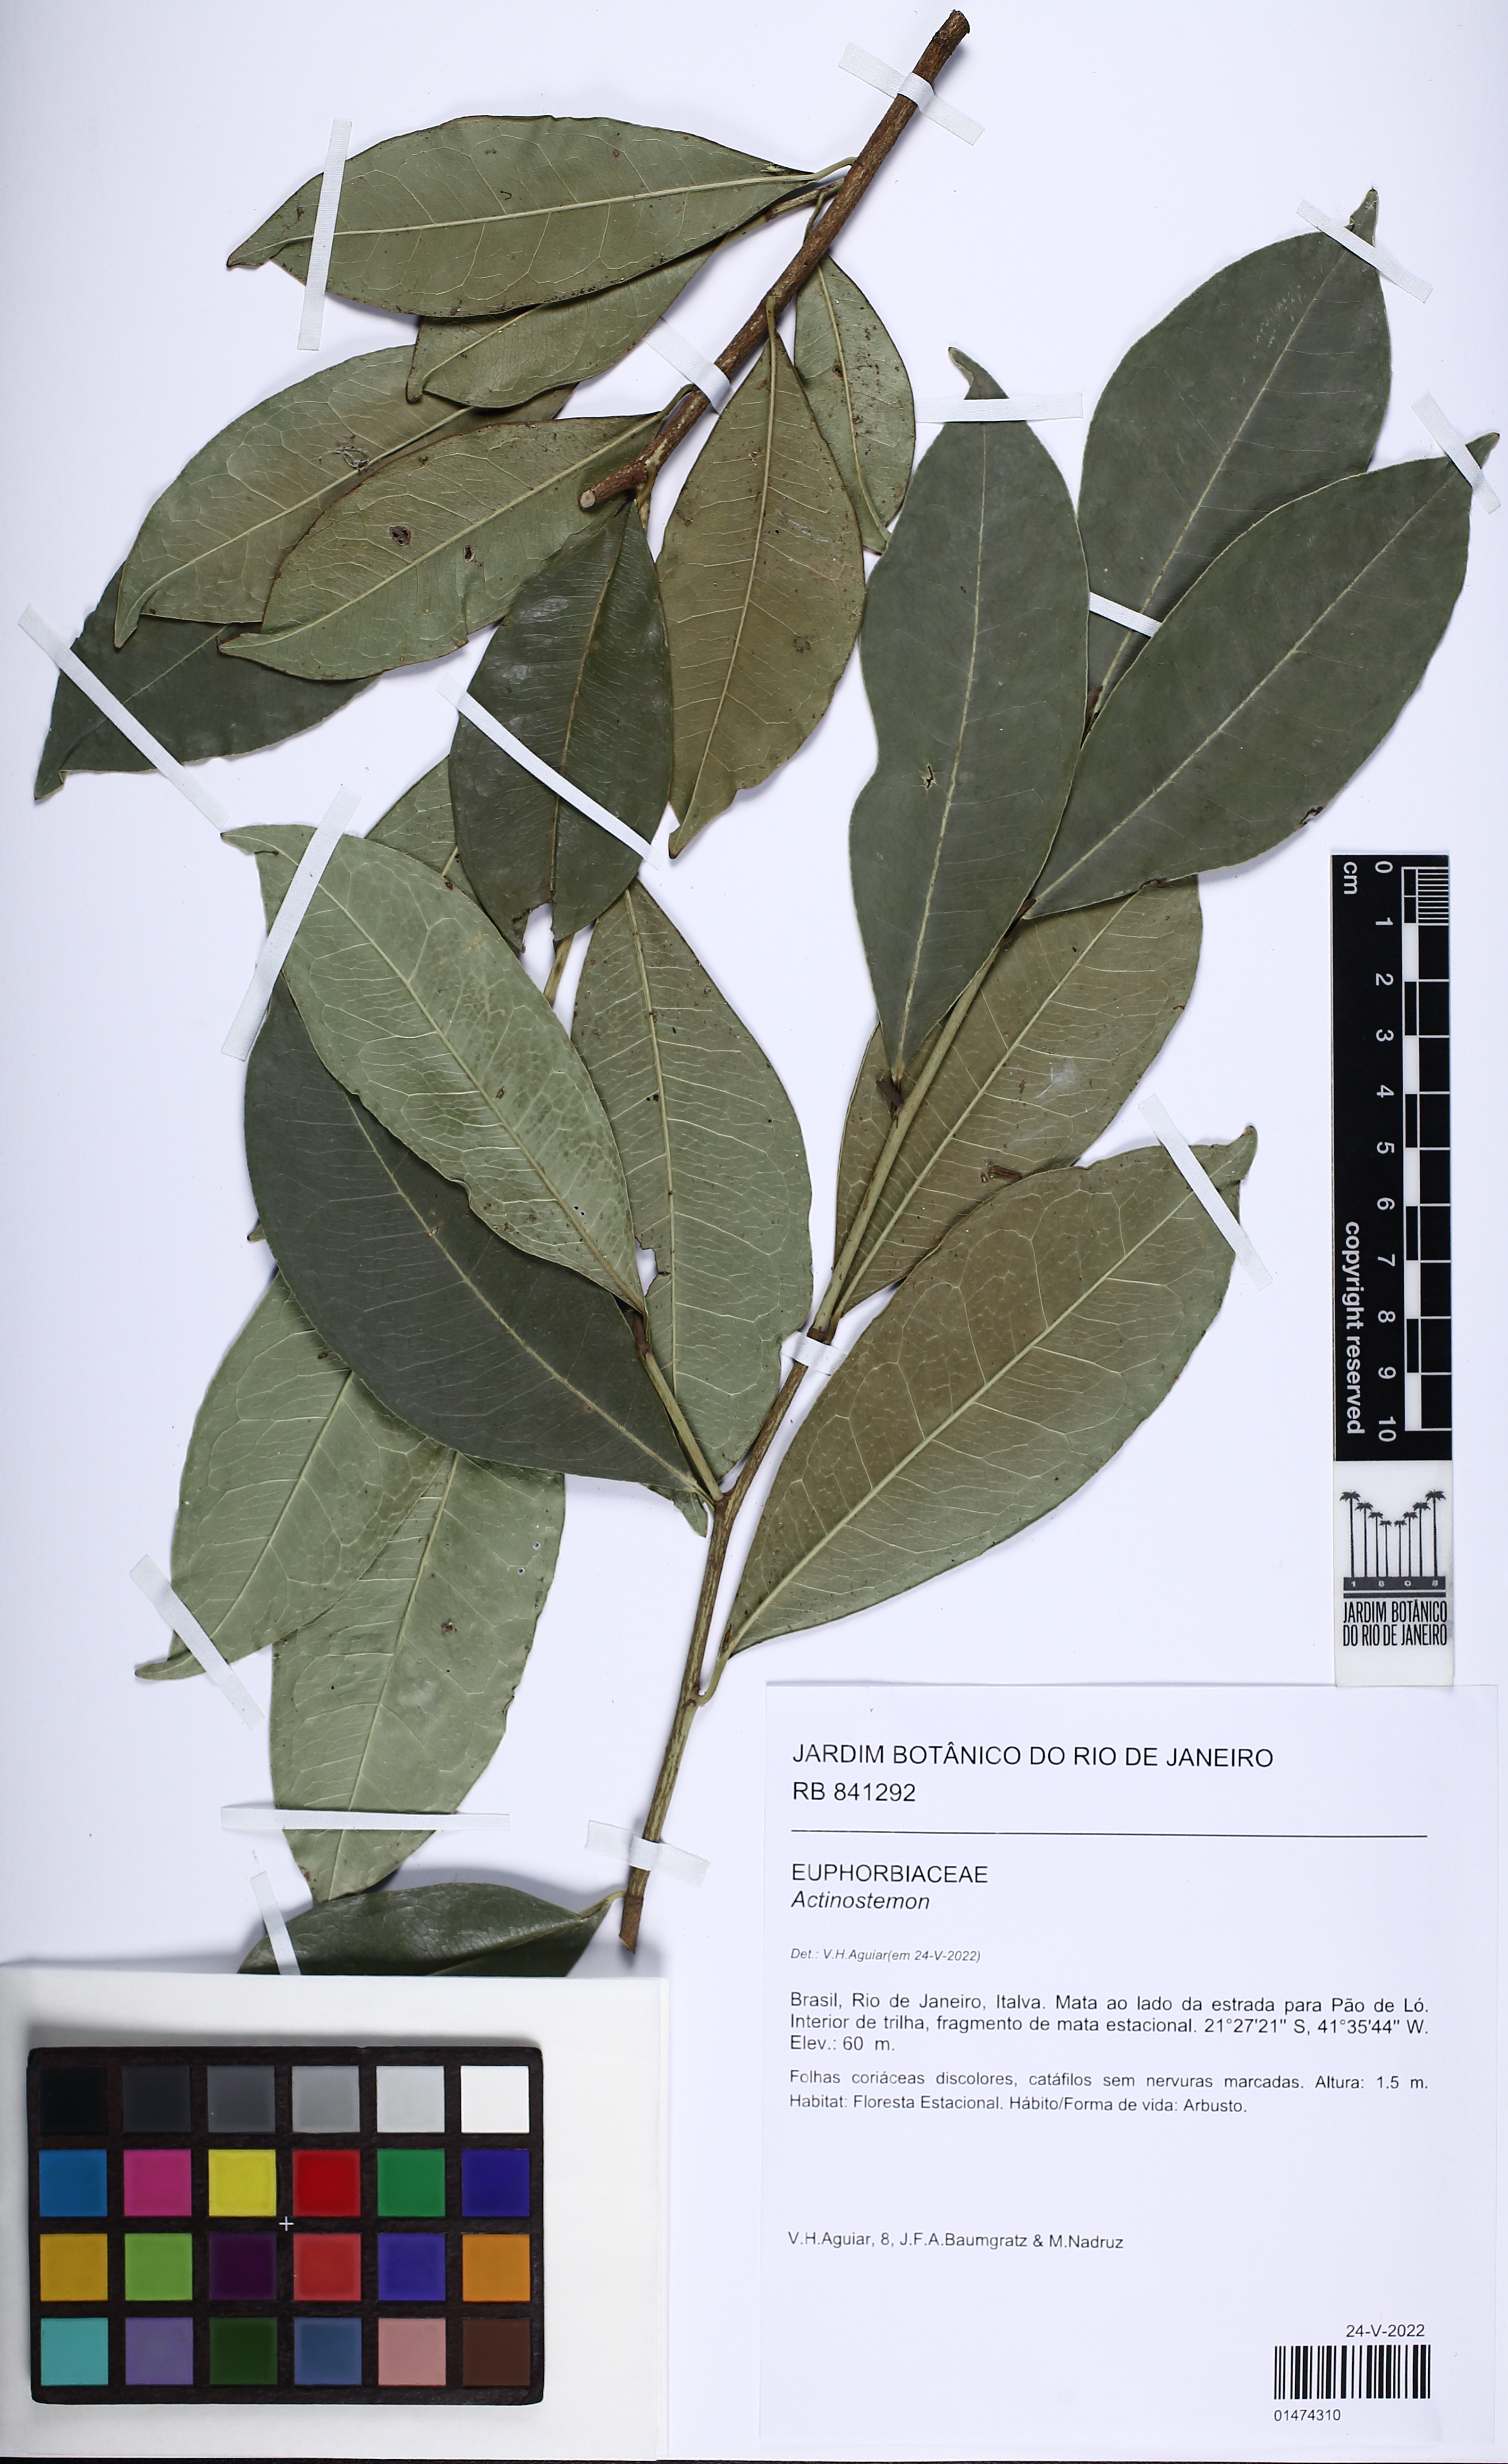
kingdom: Plantae
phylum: Tracheophyta
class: Magnoliopsida
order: Malpighiales
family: Euphorbiaceae
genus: Actinostemon
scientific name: Actinostemon
